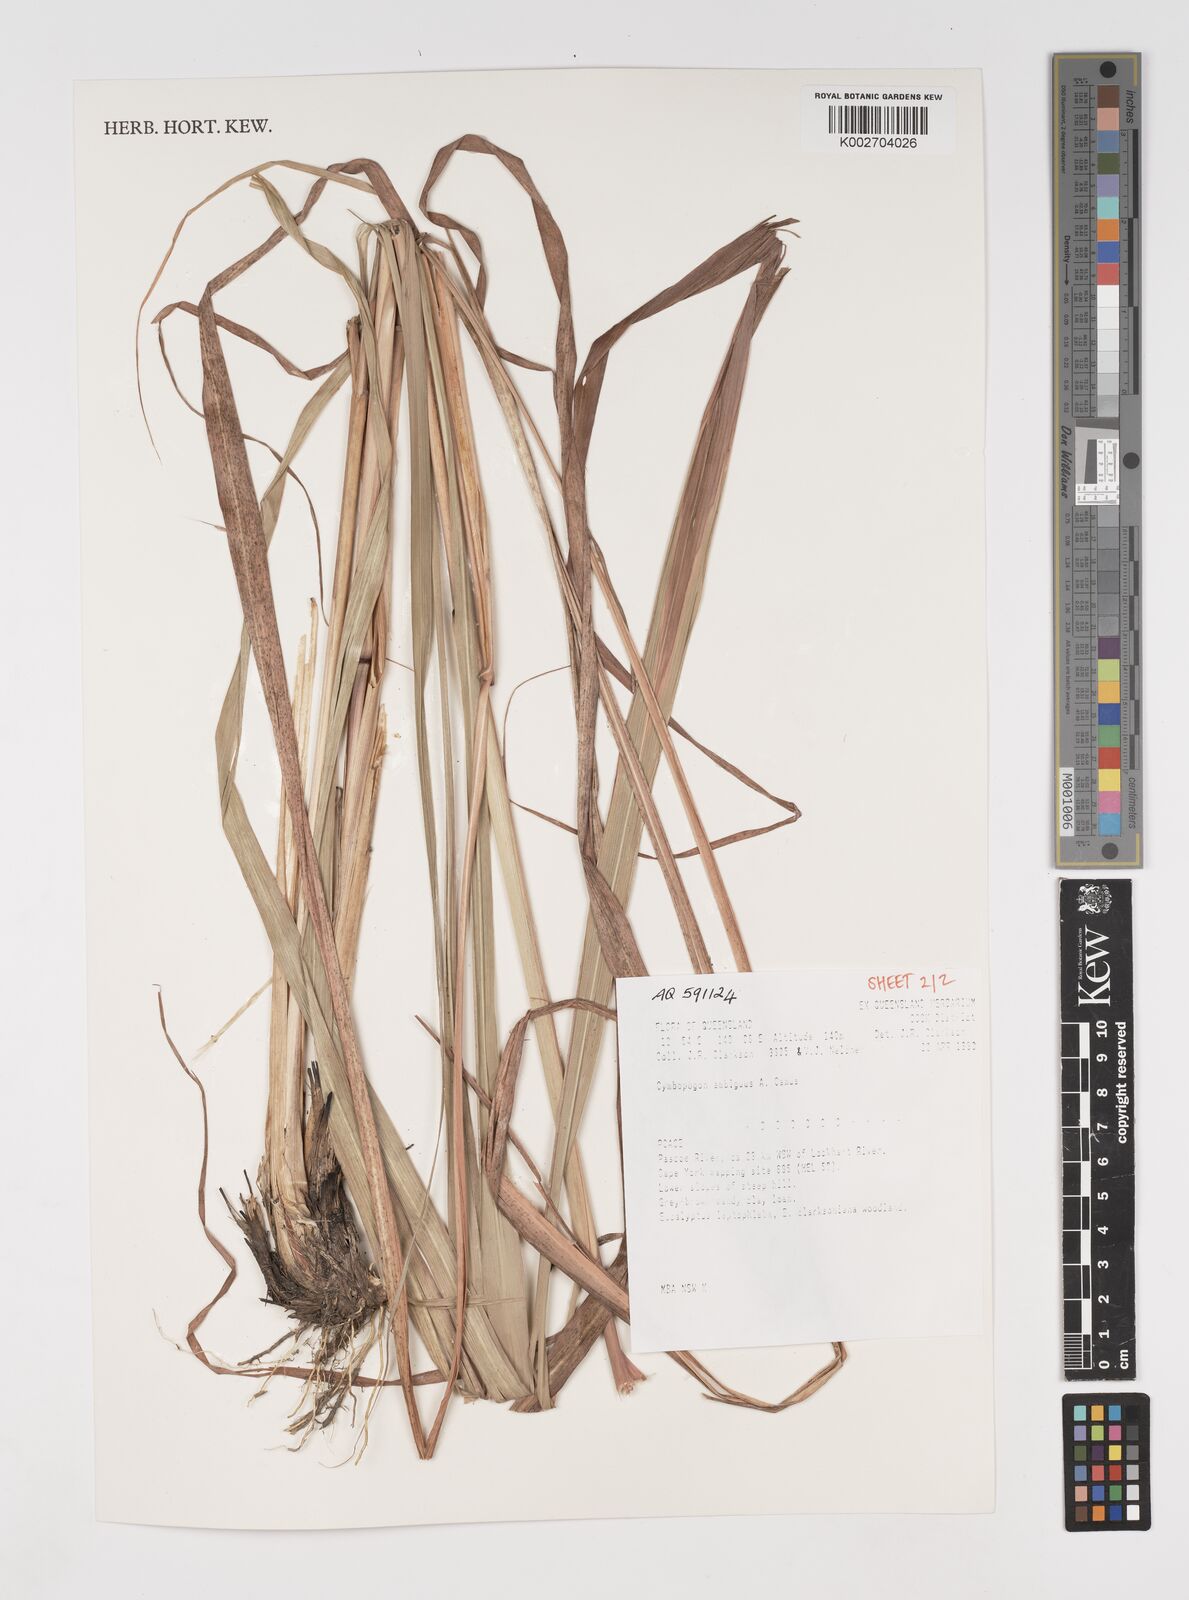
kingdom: Plantae
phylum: Tracheophyta
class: Liliopsida
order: Poales
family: Poaceae
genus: Cymbopogon
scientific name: Cymbopogon ambiguus
